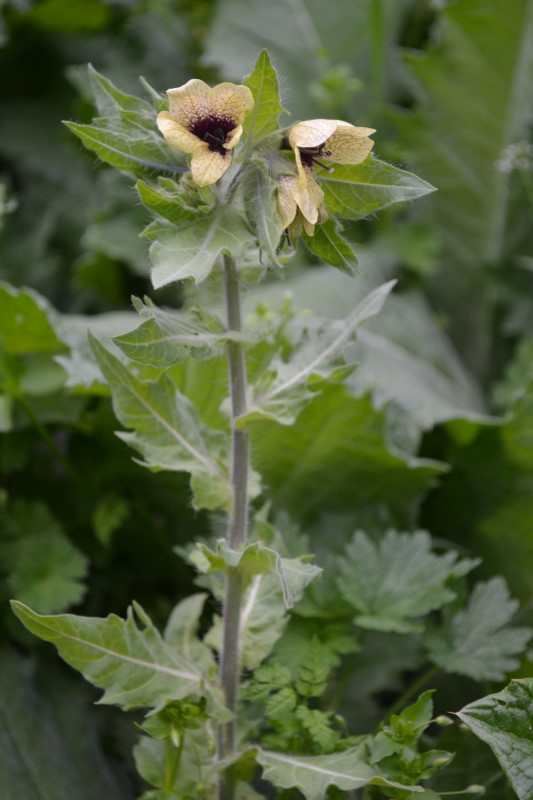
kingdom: Plantae
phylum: Tracheophyta
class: Magnoliopsida
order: Solanales
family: Solanaceae
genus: Hyoscyamus
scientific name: Hyoscyamus niger
